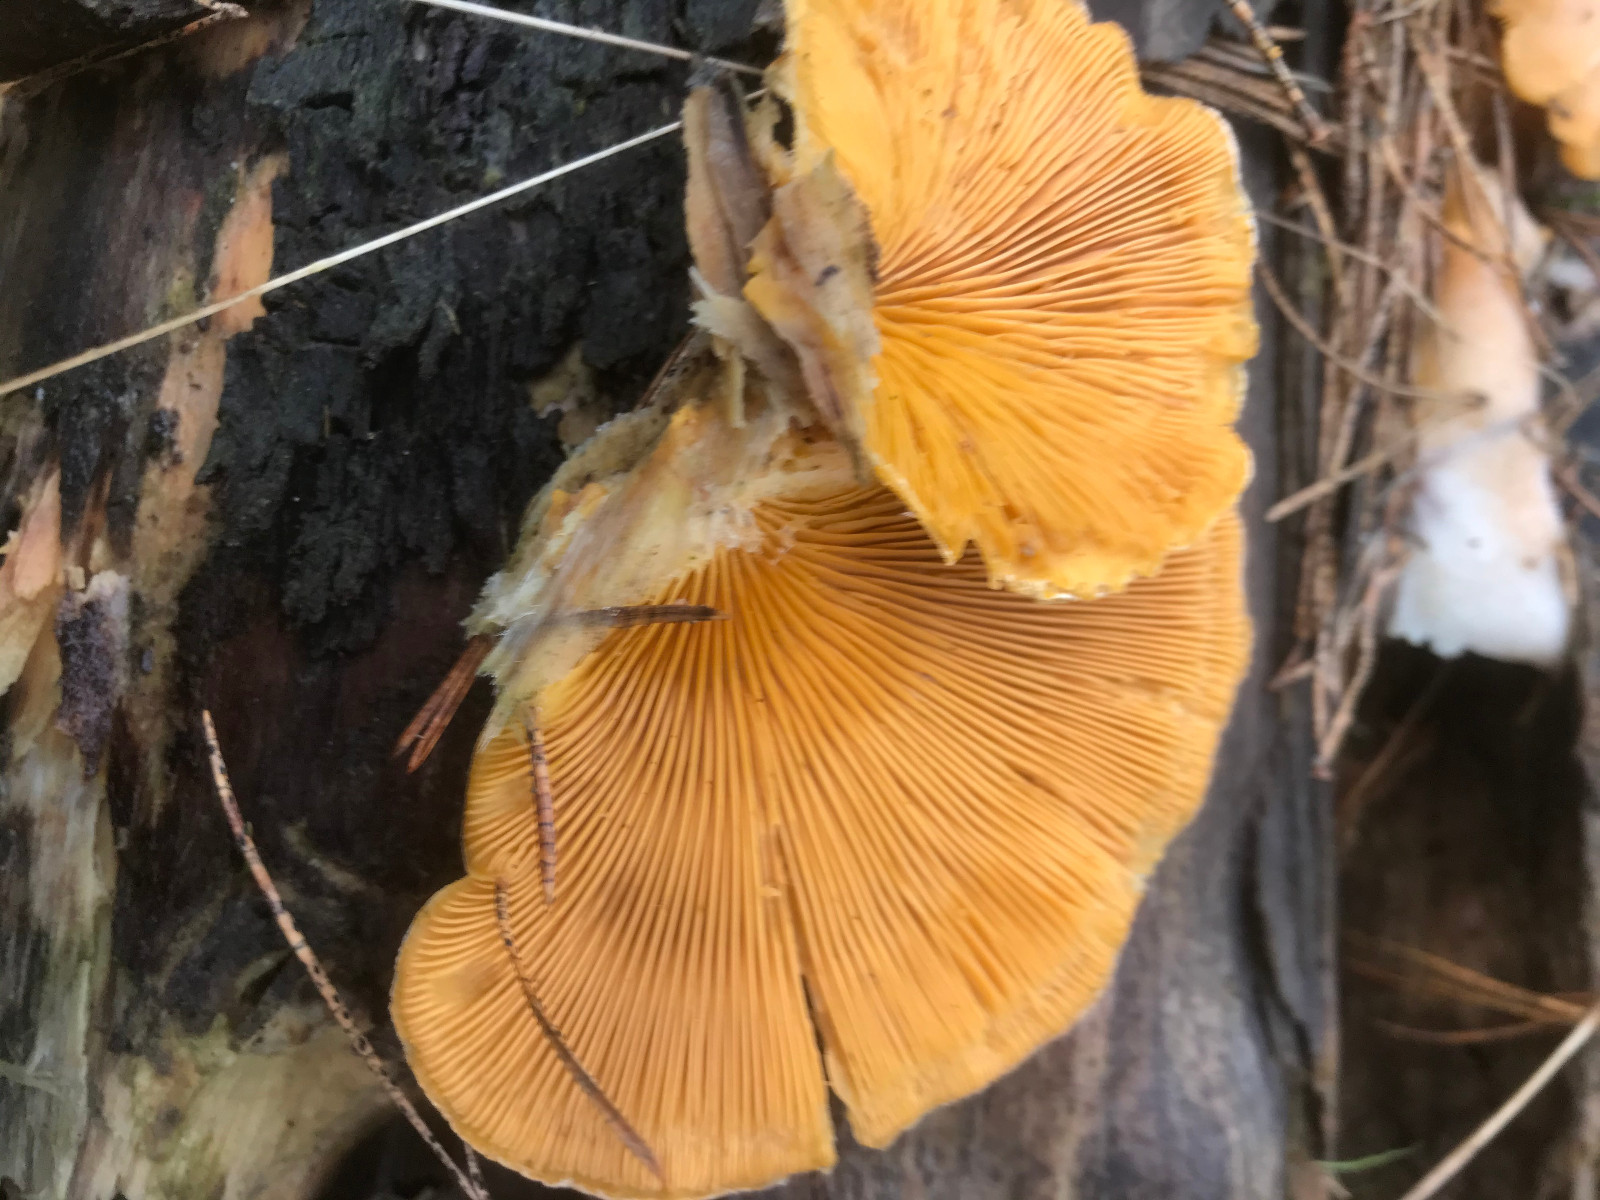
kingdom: Fungi
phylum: Basidiomycota
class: Agaricomycetes
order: Agaricales
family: Phyllotopsidaceae
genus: Phyllotopsis
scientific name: Phyllotopsis nidulans
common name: okkerblad
